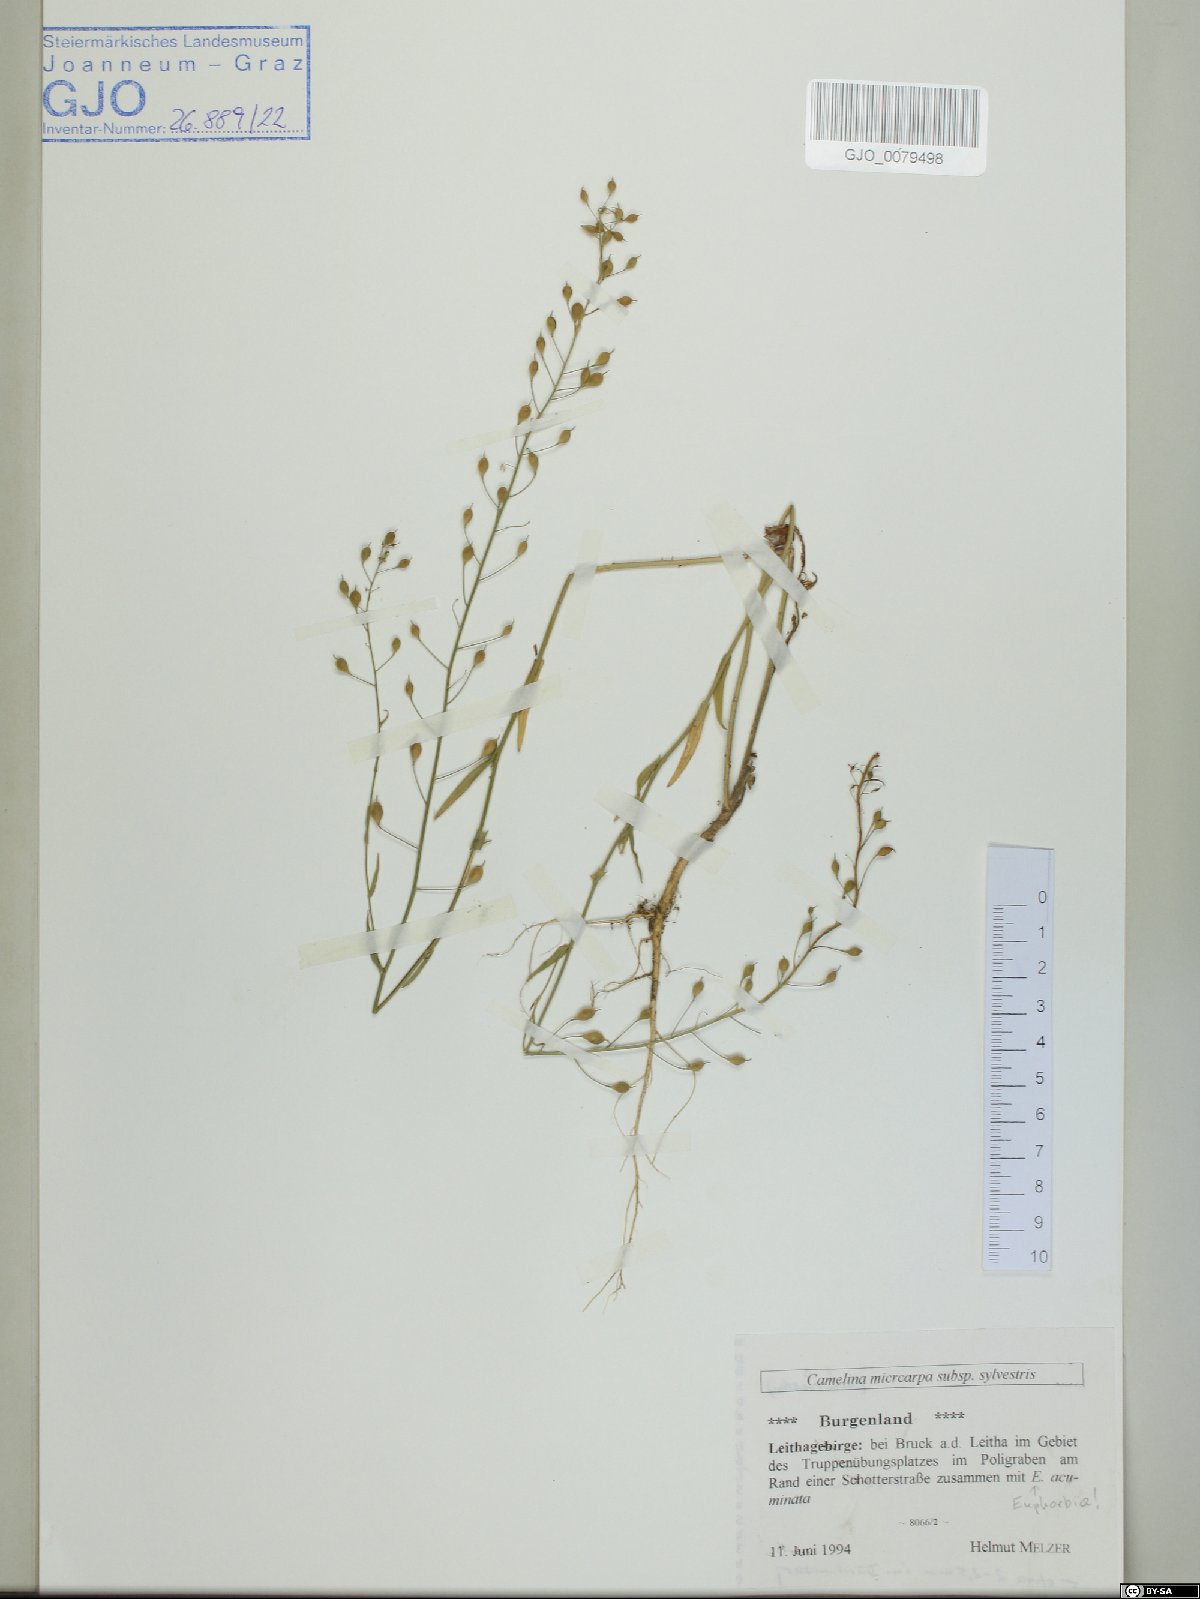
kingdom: Plantae
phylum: Tracheophyta
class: Magnoliopsida
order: Brassicales
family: Brassicaceae
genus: Camelina
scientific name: Camelina microcarpa
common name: Lesser gold-of-pleasure
